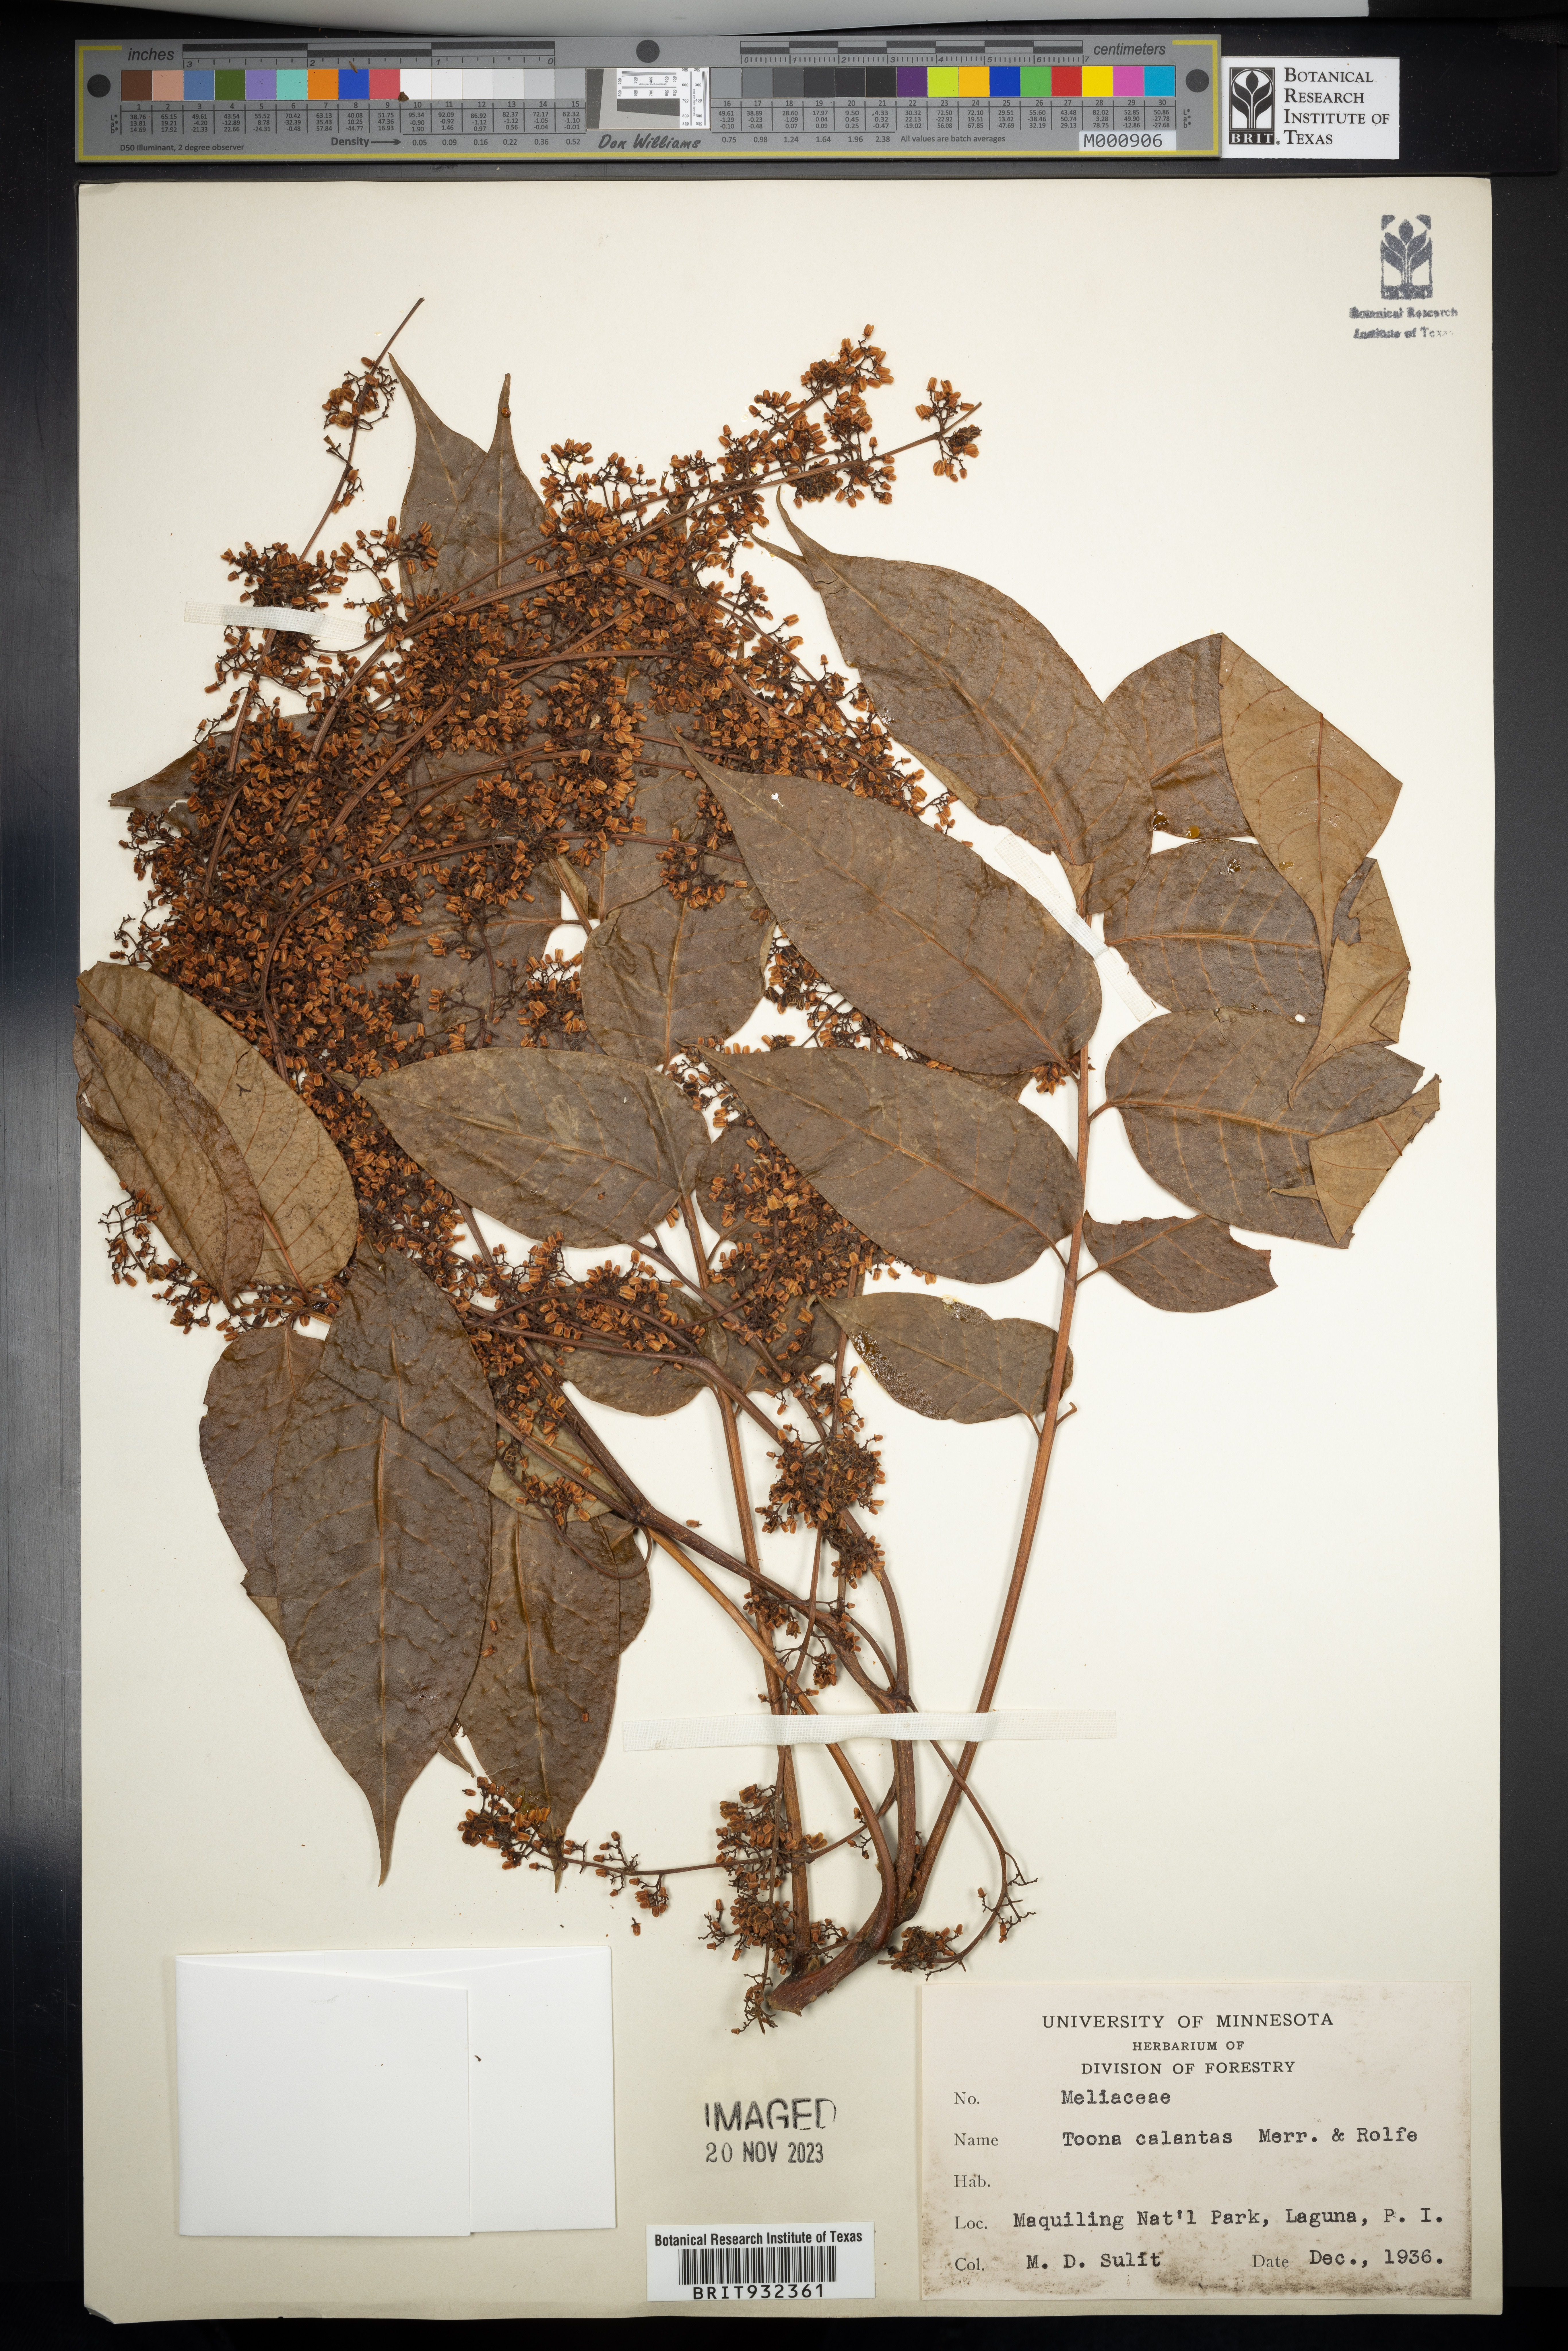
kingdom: Plantae
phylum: Tracheophyta
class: Magnoliopsida
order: Sapindales
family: Meliaceae
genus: Toona
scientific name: Toona
